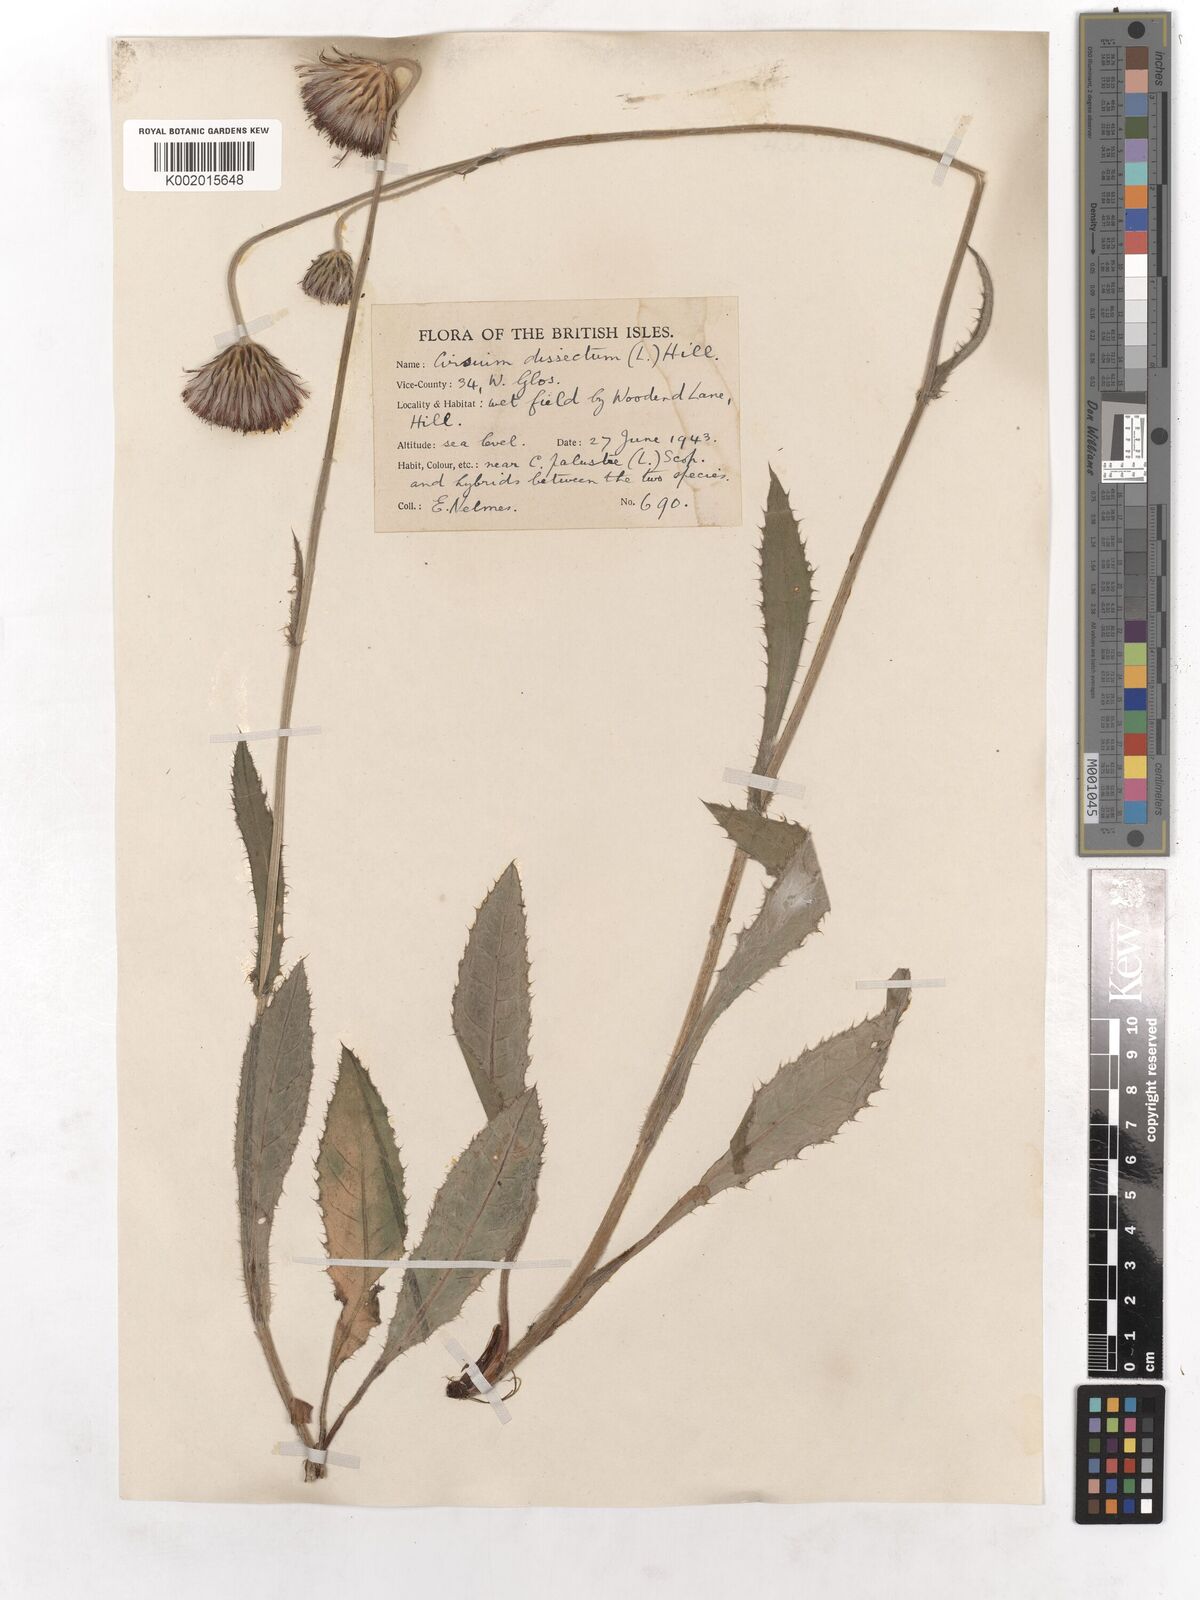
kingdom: Plantae
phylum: Tracheophyta
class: Magnoliopsida
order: Asterales
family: Asteraceae
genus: Cirsium
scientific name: Cirsium dissectum
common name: Meadow thistle
